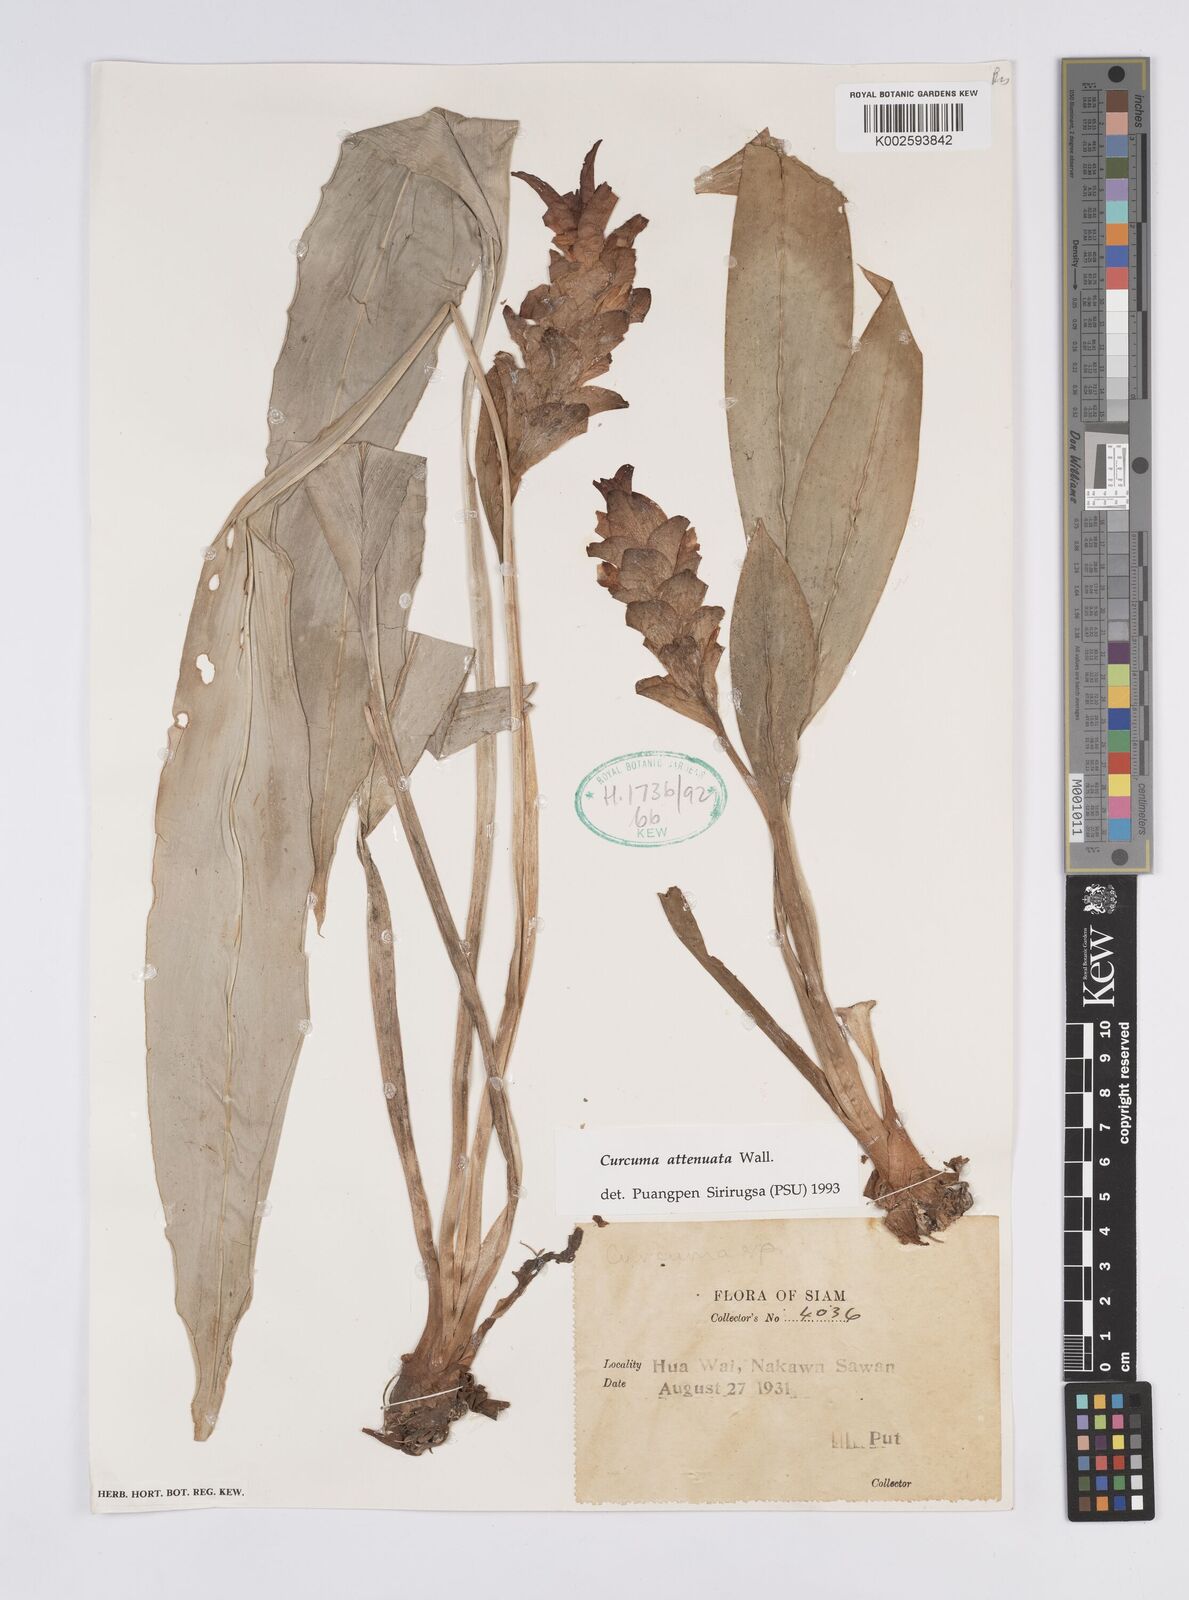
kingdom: Plantae
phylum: Tracheophyta
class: Liliopsida
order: Zingiberales
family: Zingiberaceae
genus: Curcuma
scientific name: Curcuma attenuata
